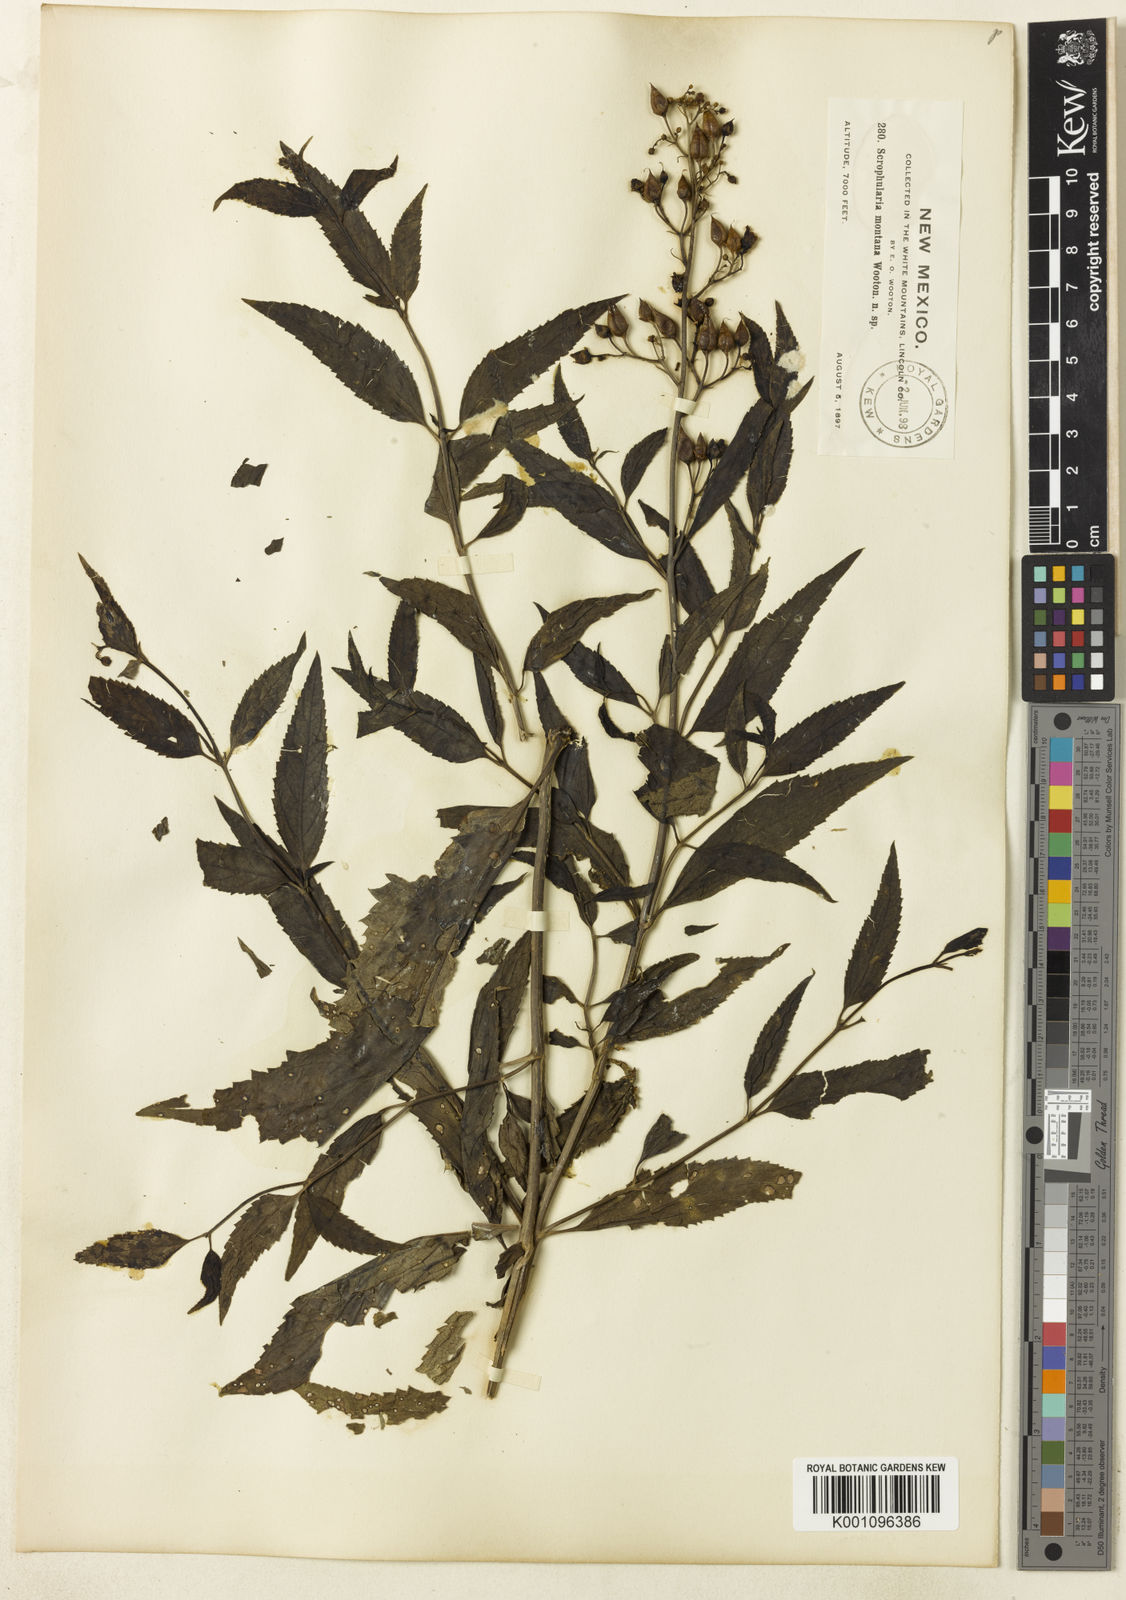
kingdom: Plantae
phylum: Tracheophyta
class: Magnoliopsida
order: Lamiales
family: Scrophulariaceae
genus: Scrophularia
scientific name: Scrophularia montana
